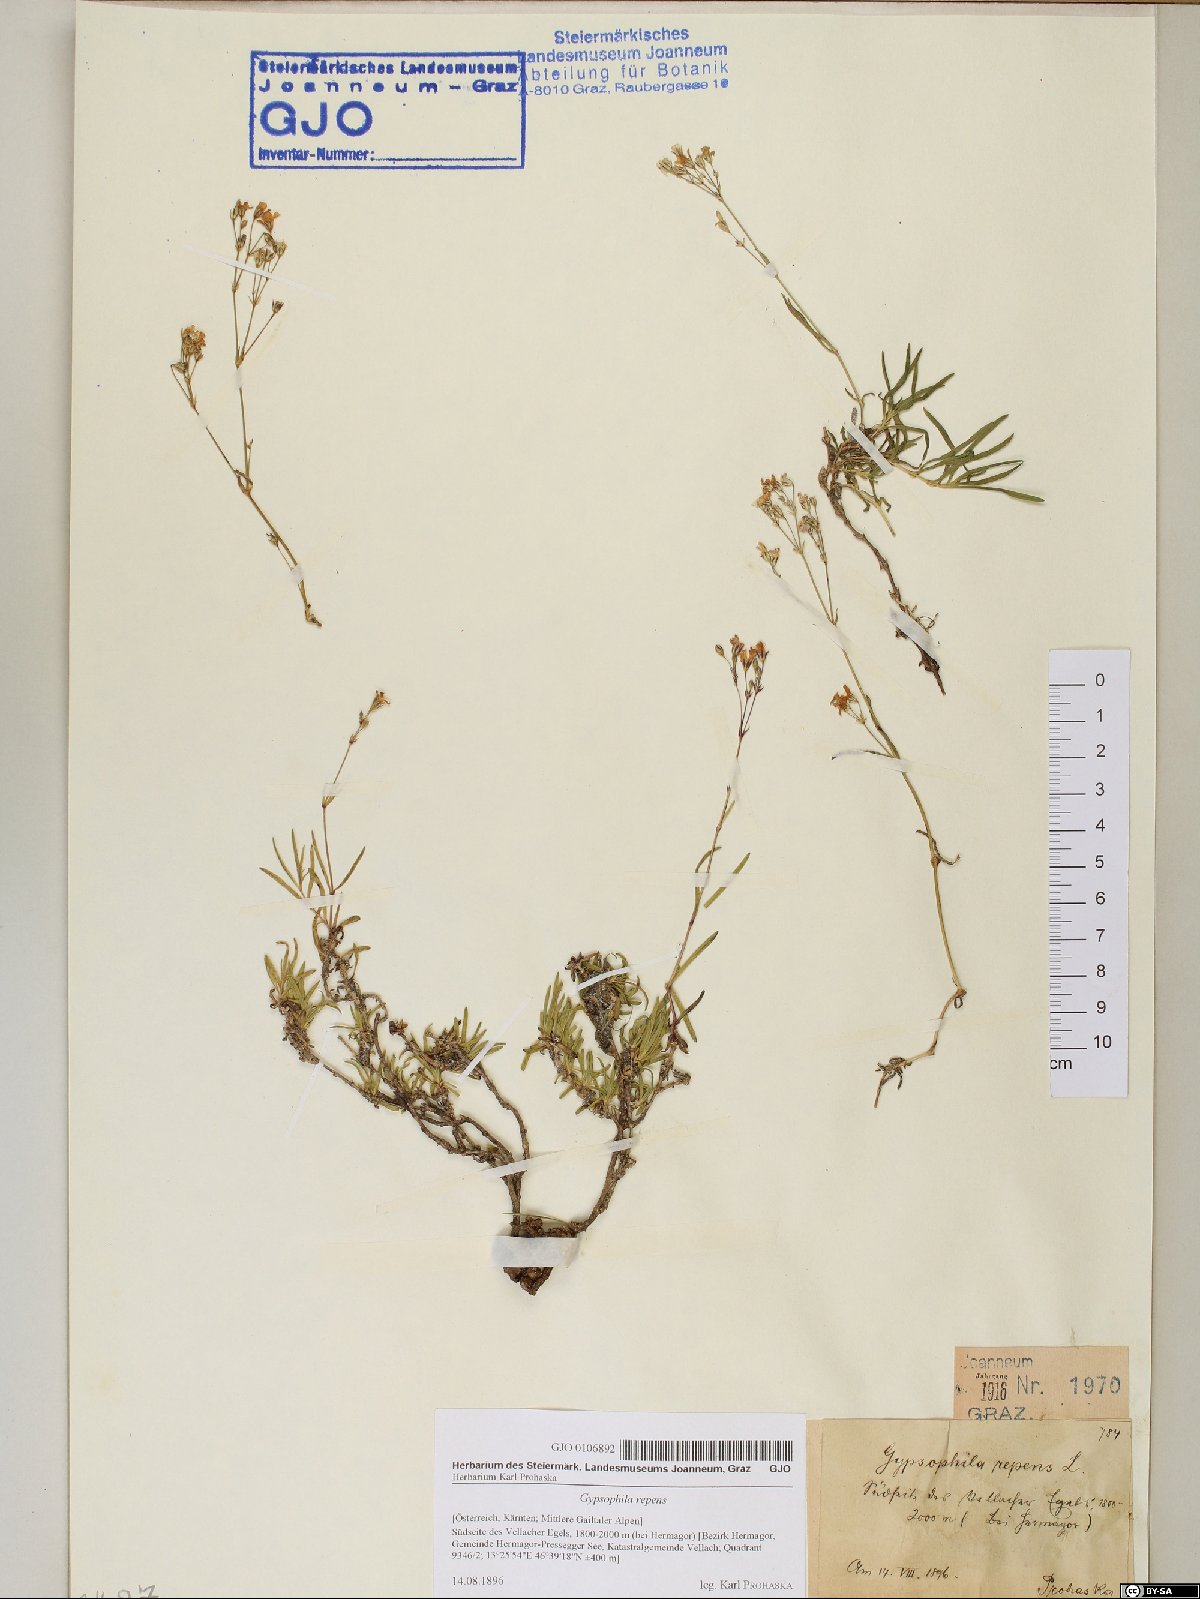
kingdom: Plantae
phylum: Tracheophyta
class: Magnoliopsida
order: Caryophyllales
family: Caryophyllaceae
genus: Gypsophila
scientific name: Gypsophila repens
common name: Creeping baby's-breath
